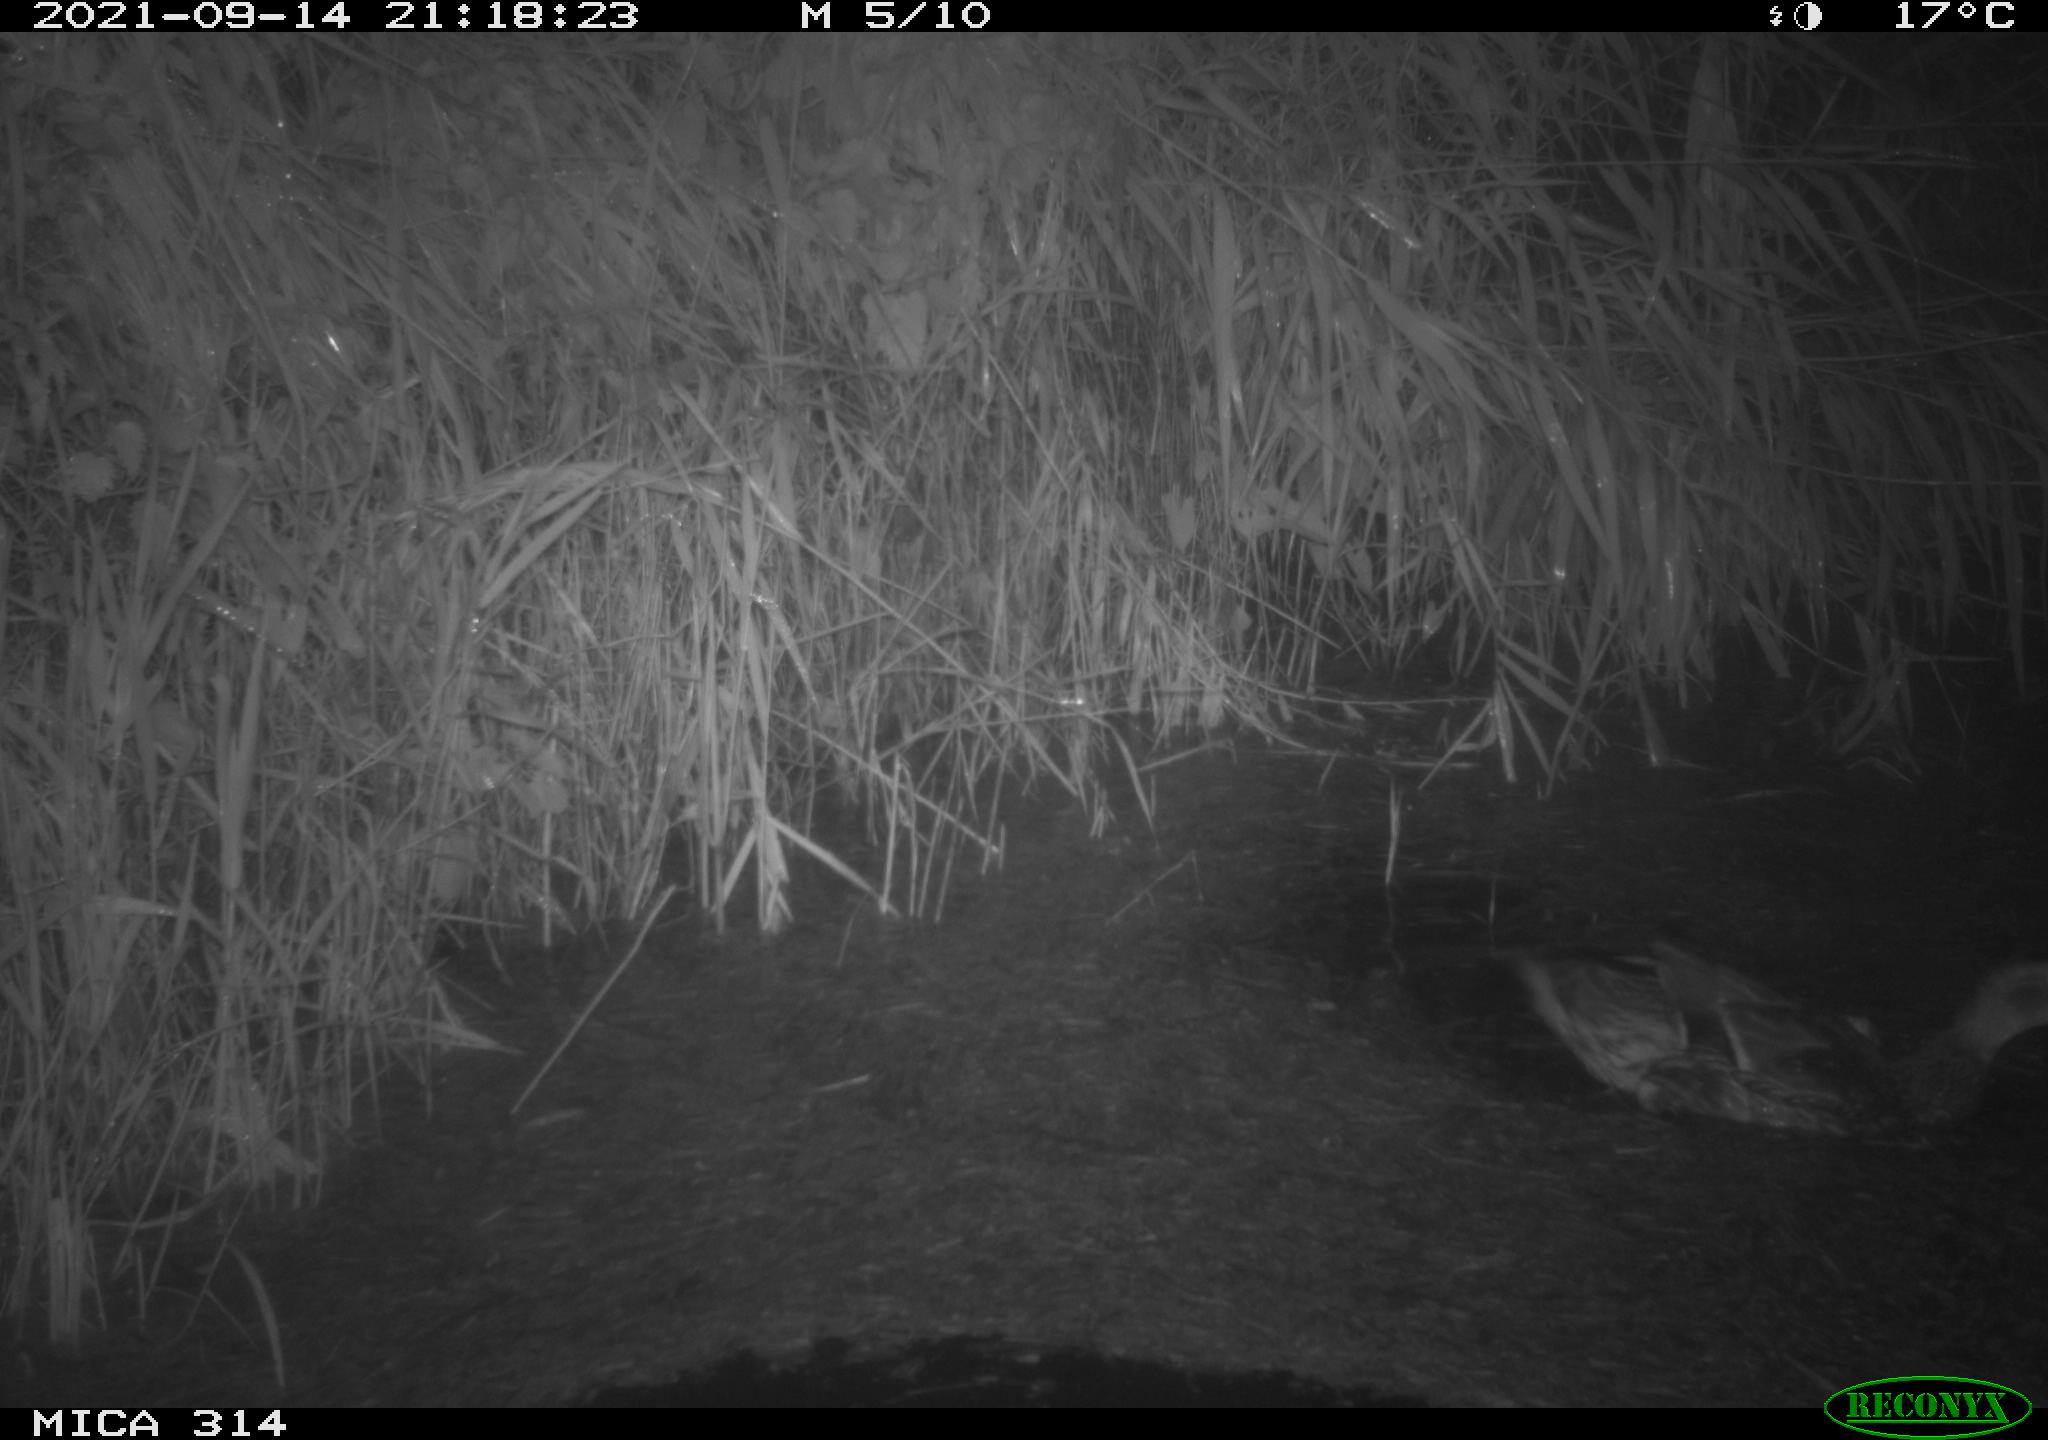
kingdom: Animalia
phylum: Chordata
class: Aves
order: Anseriformes
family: Anatidae
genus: Anas
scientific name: Anas platyrhynchos
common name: Mallard
